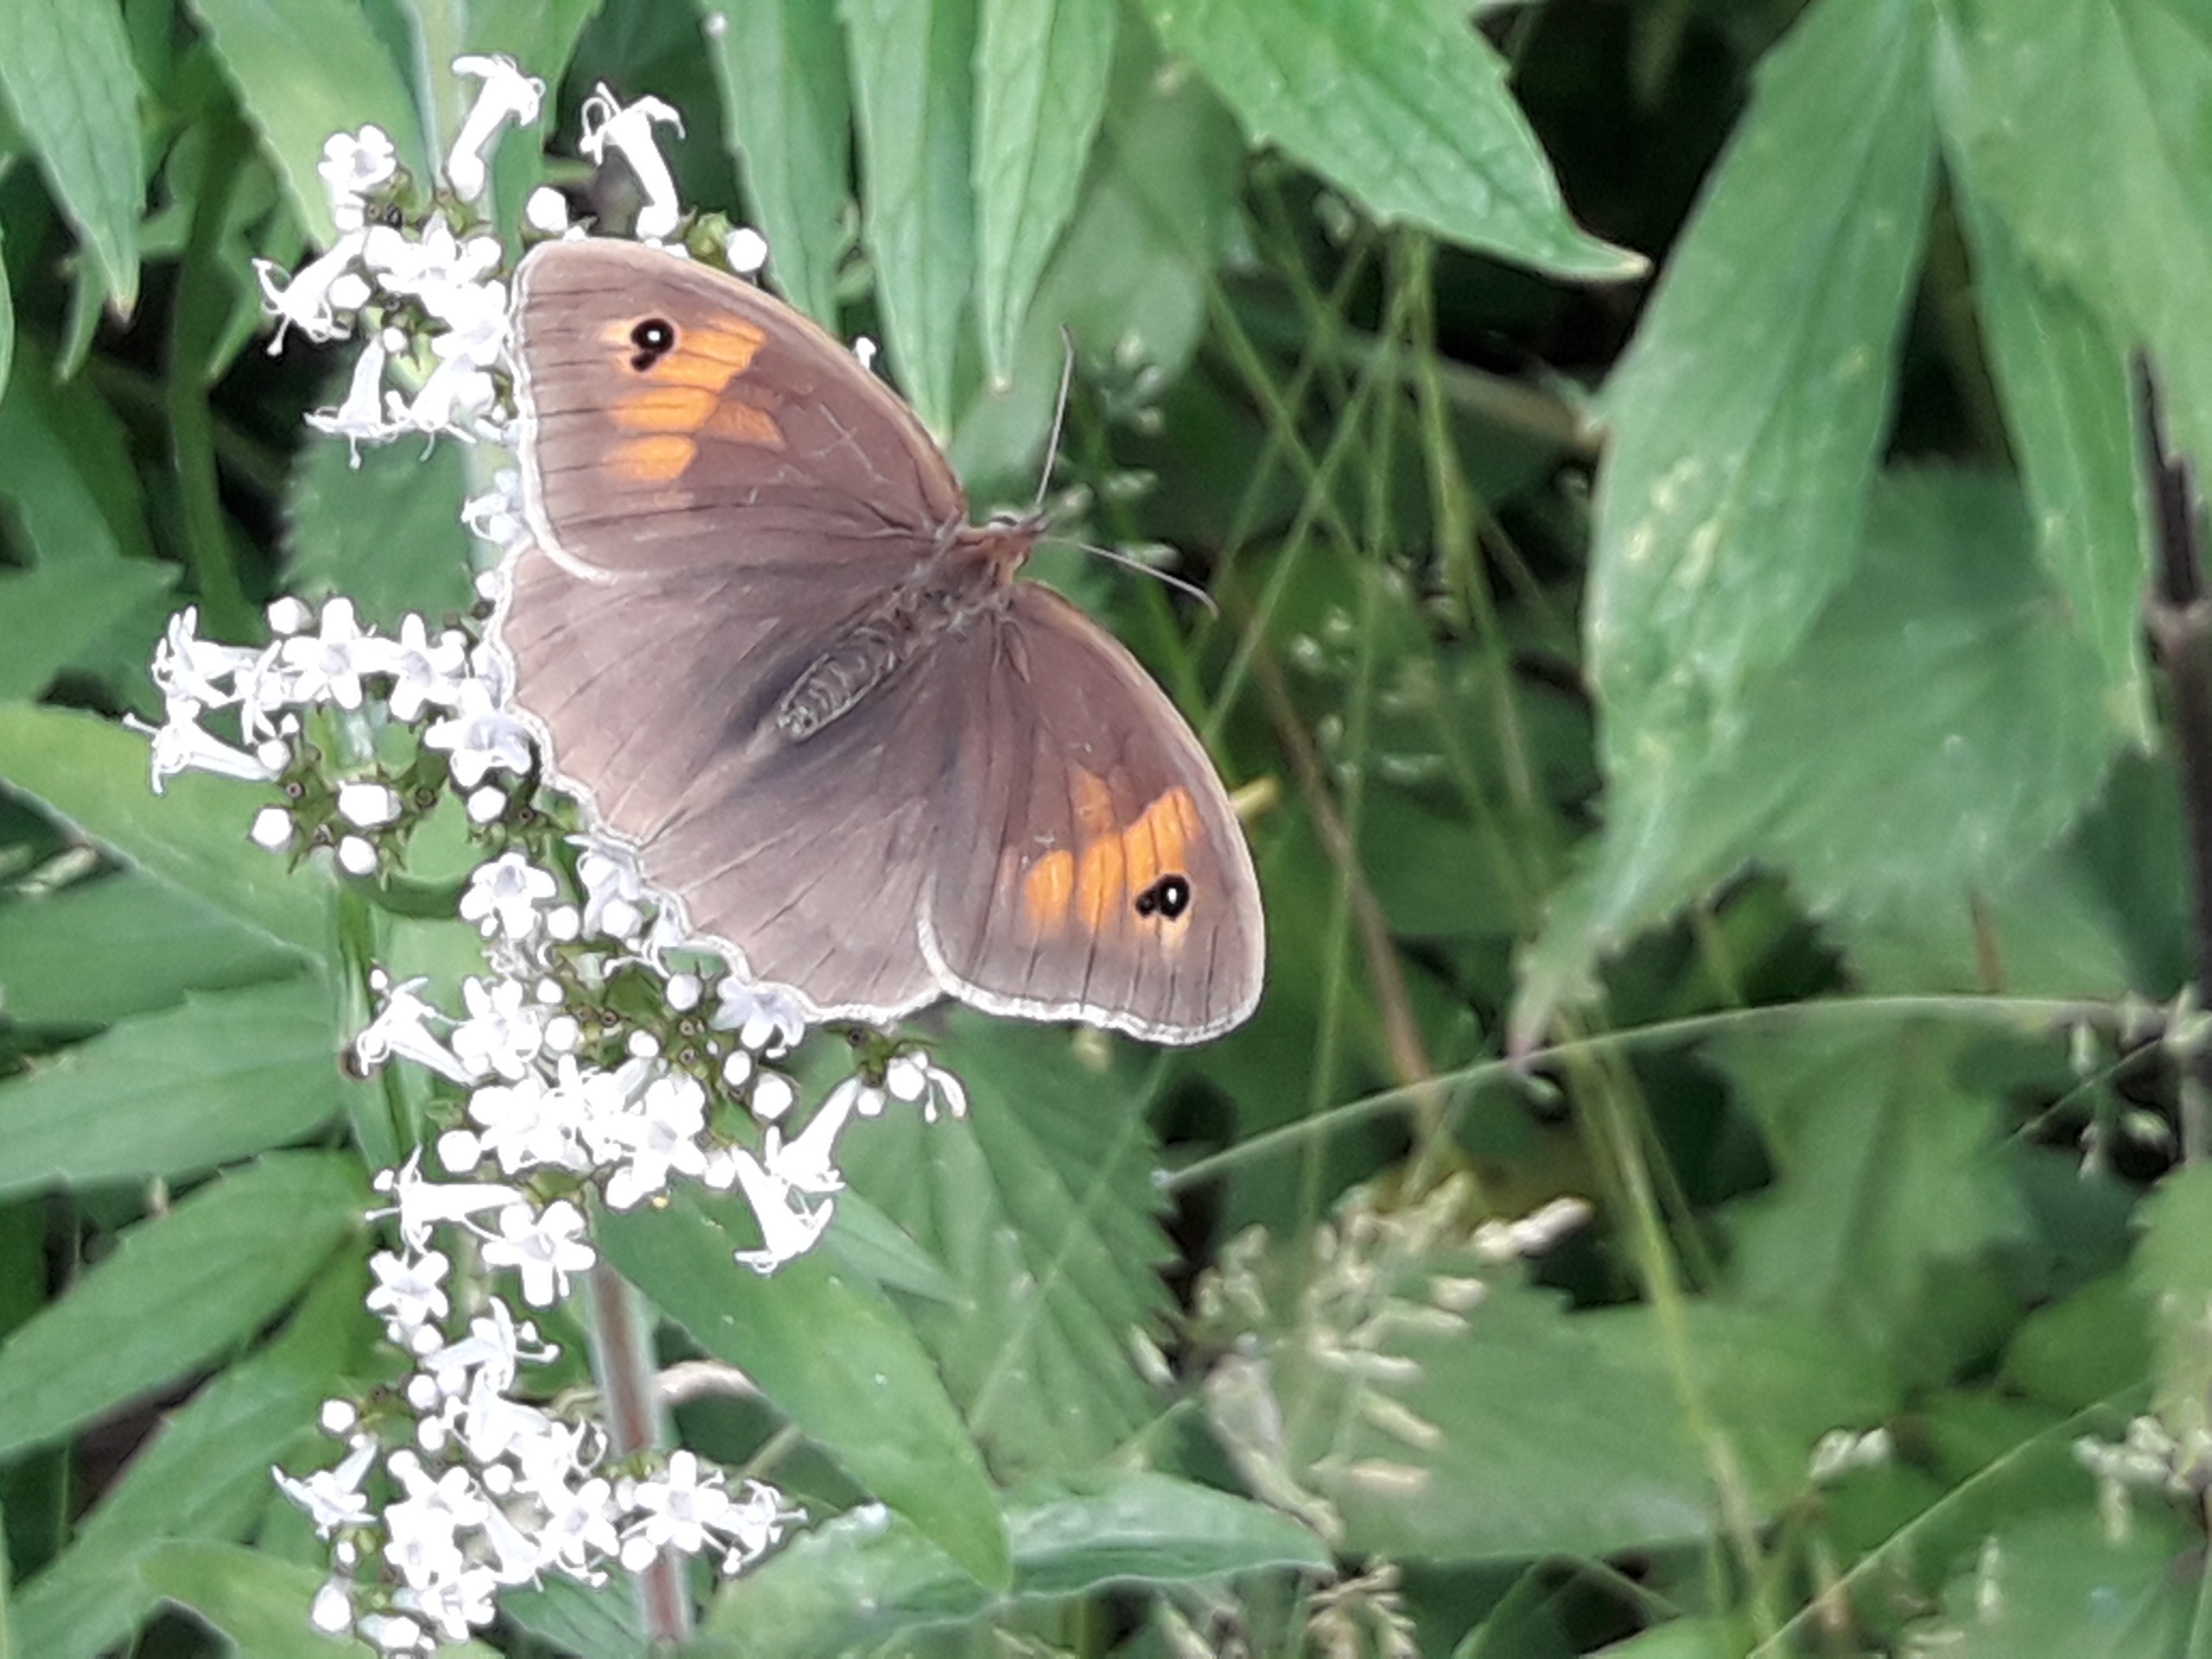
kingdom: Animalia
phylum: Arthropoda
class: Insecta
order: Lepidoptera
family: Nymphalidae
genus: Maniola
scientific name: Maniola jurtina
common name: Græsrandøje
